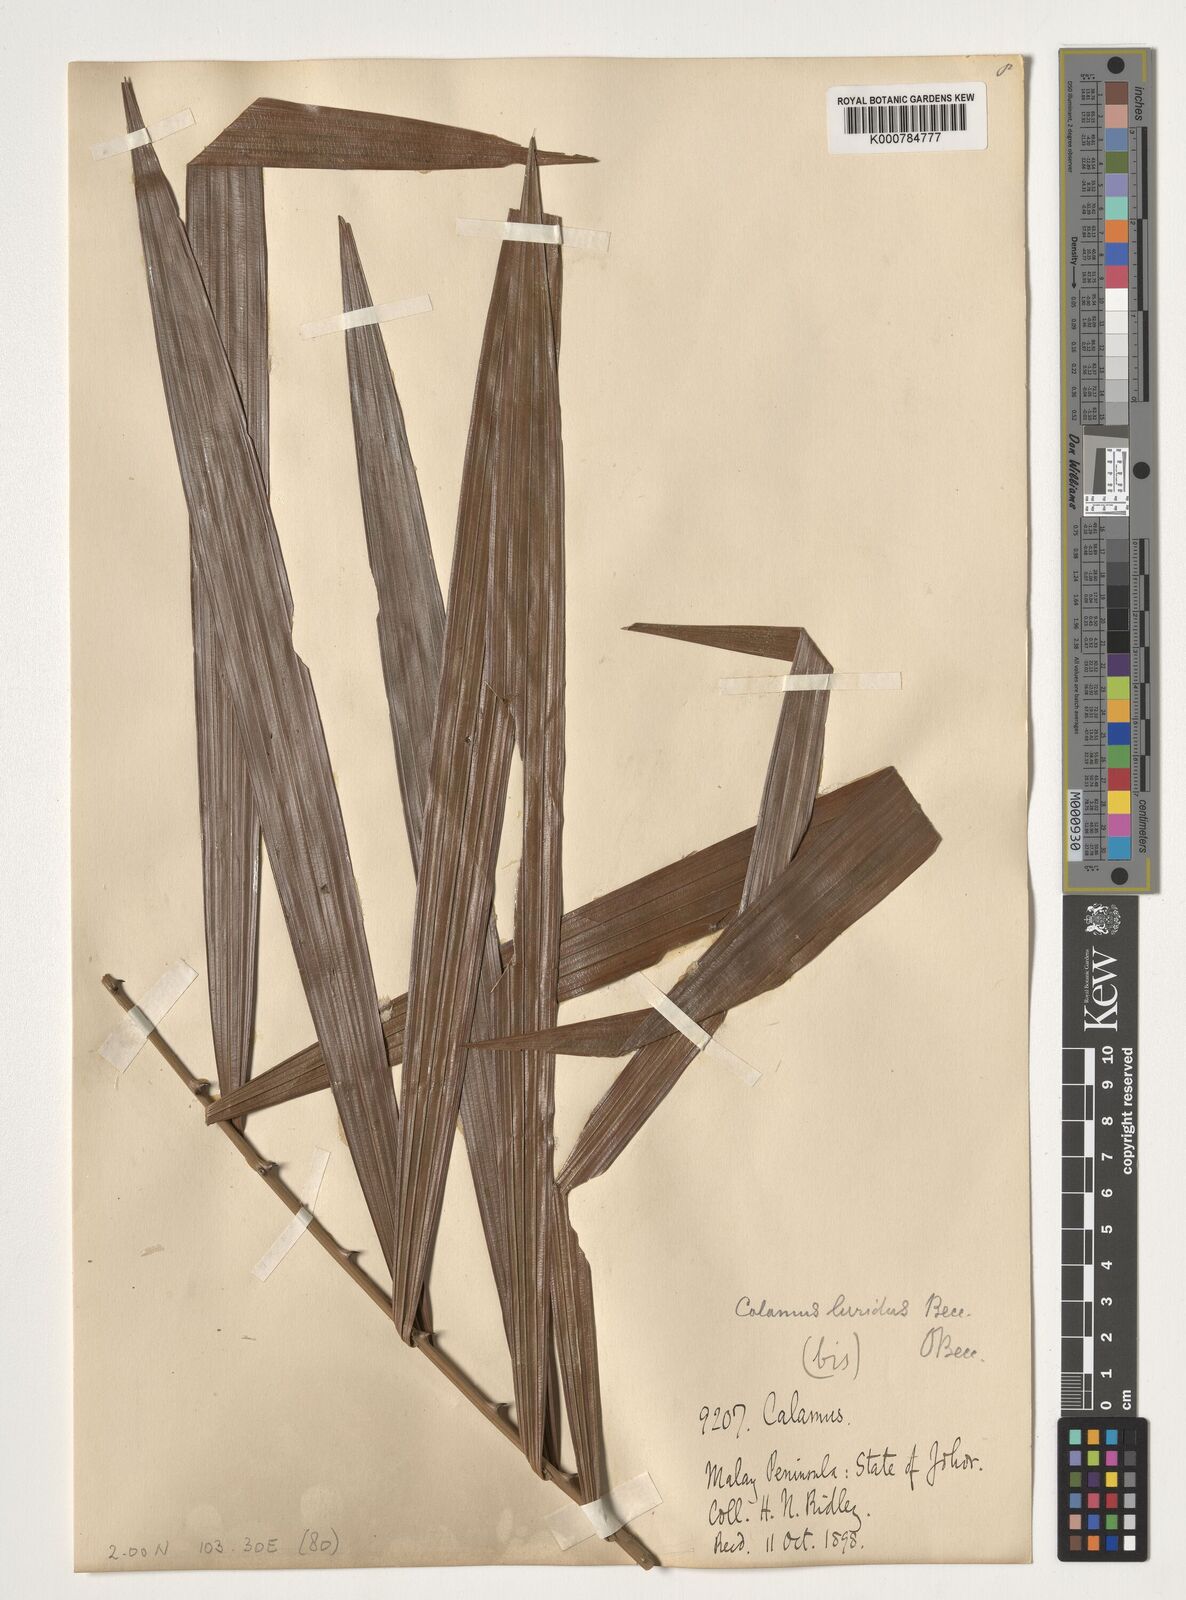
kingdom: Plantae
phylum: Tracheophyta
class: Liliopsida
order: Arecales
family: Arecaceae
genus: Calamus
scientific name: Calamus micranthus
